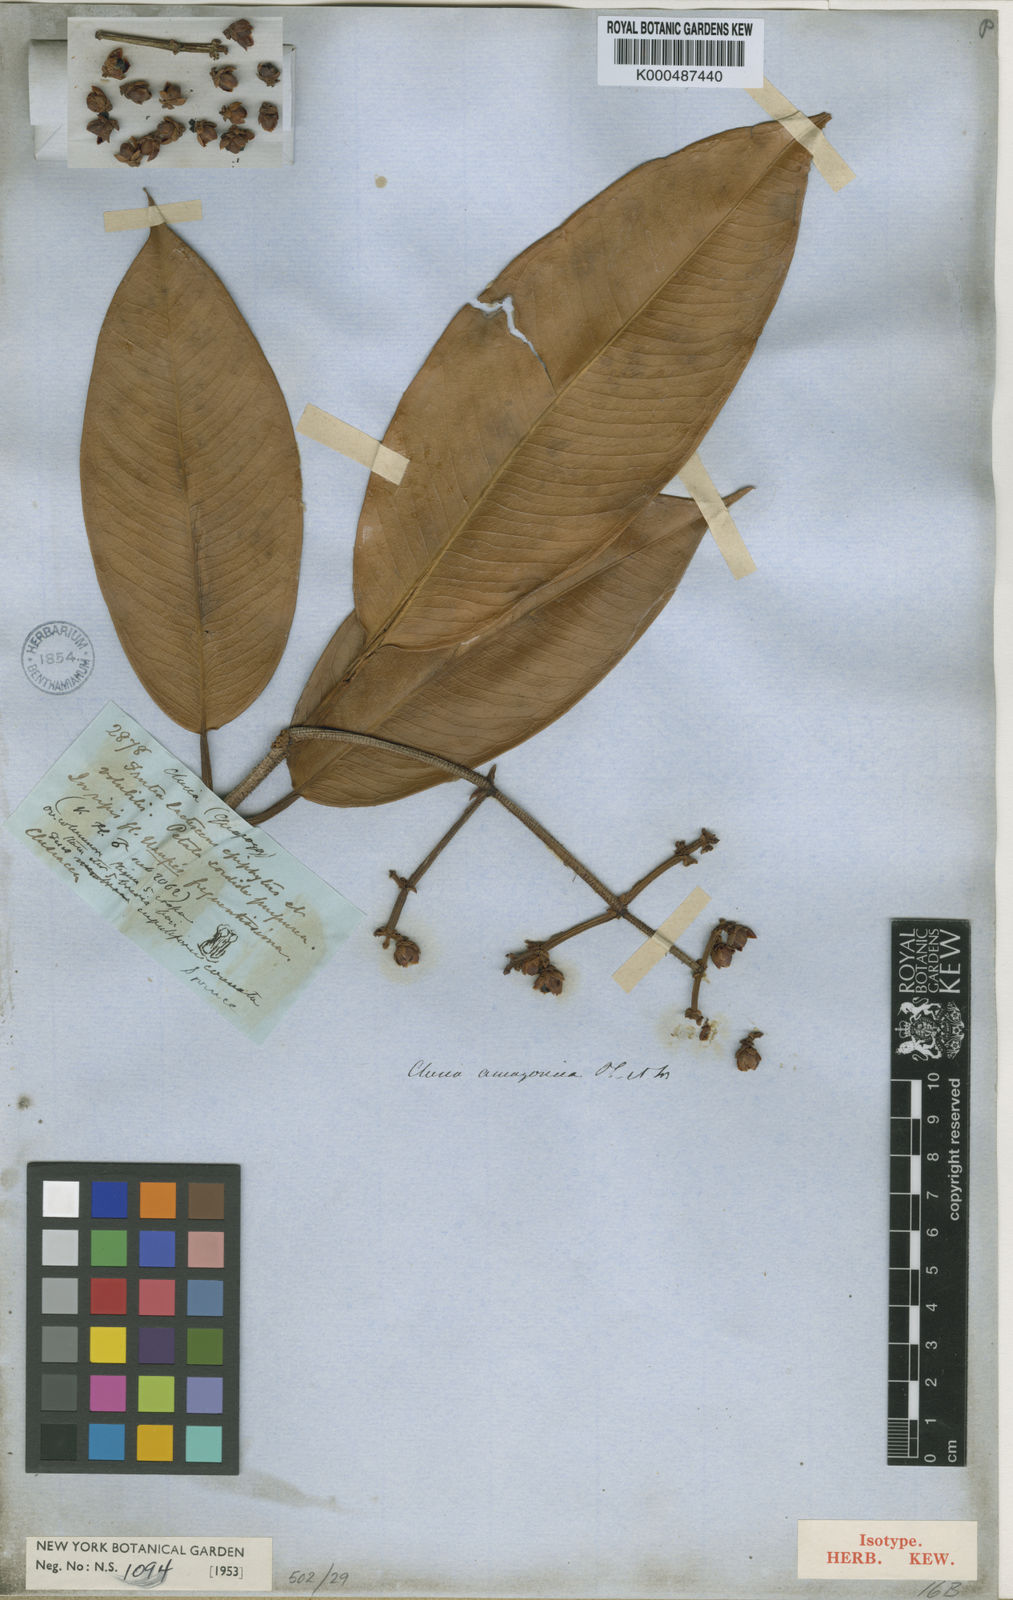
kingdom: Plantae
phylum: Tracheophyta
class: Magnoliopsida
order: Malpighiales
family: Clusiaceae
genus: Clusia
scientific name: Clusia amazonica
